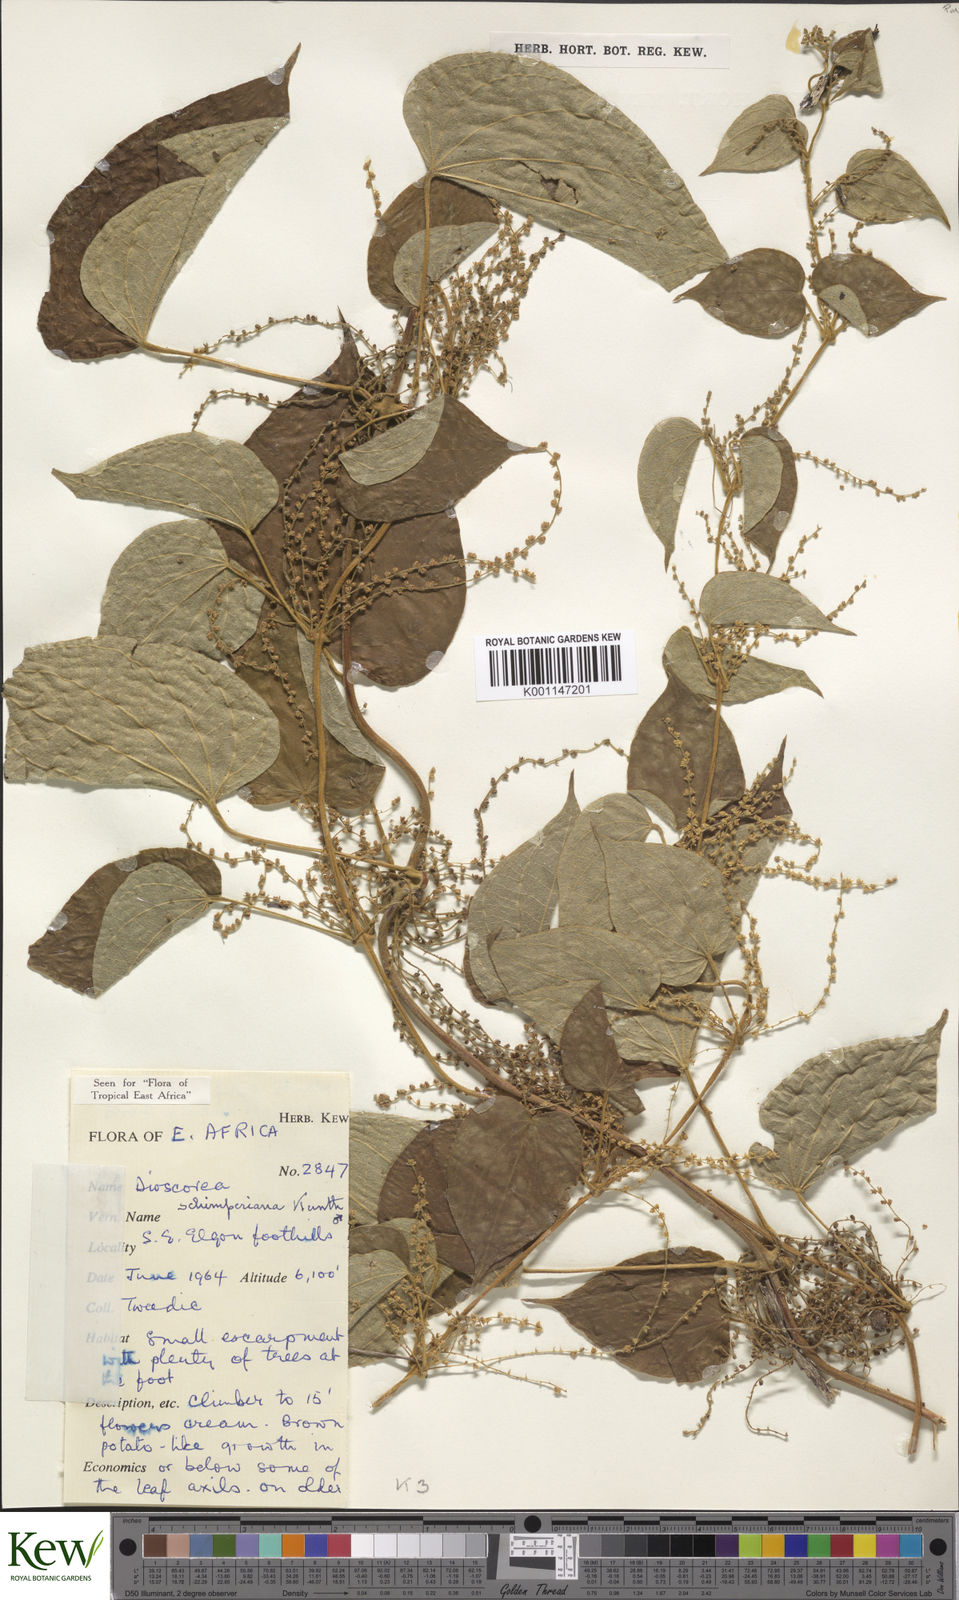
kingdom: Plantae
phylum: Tracheophyta
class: Liliopsida
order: Dioscoreales
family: Dioscoreaceae
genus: Dioscorea
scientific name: Dioscorea schimperiana
